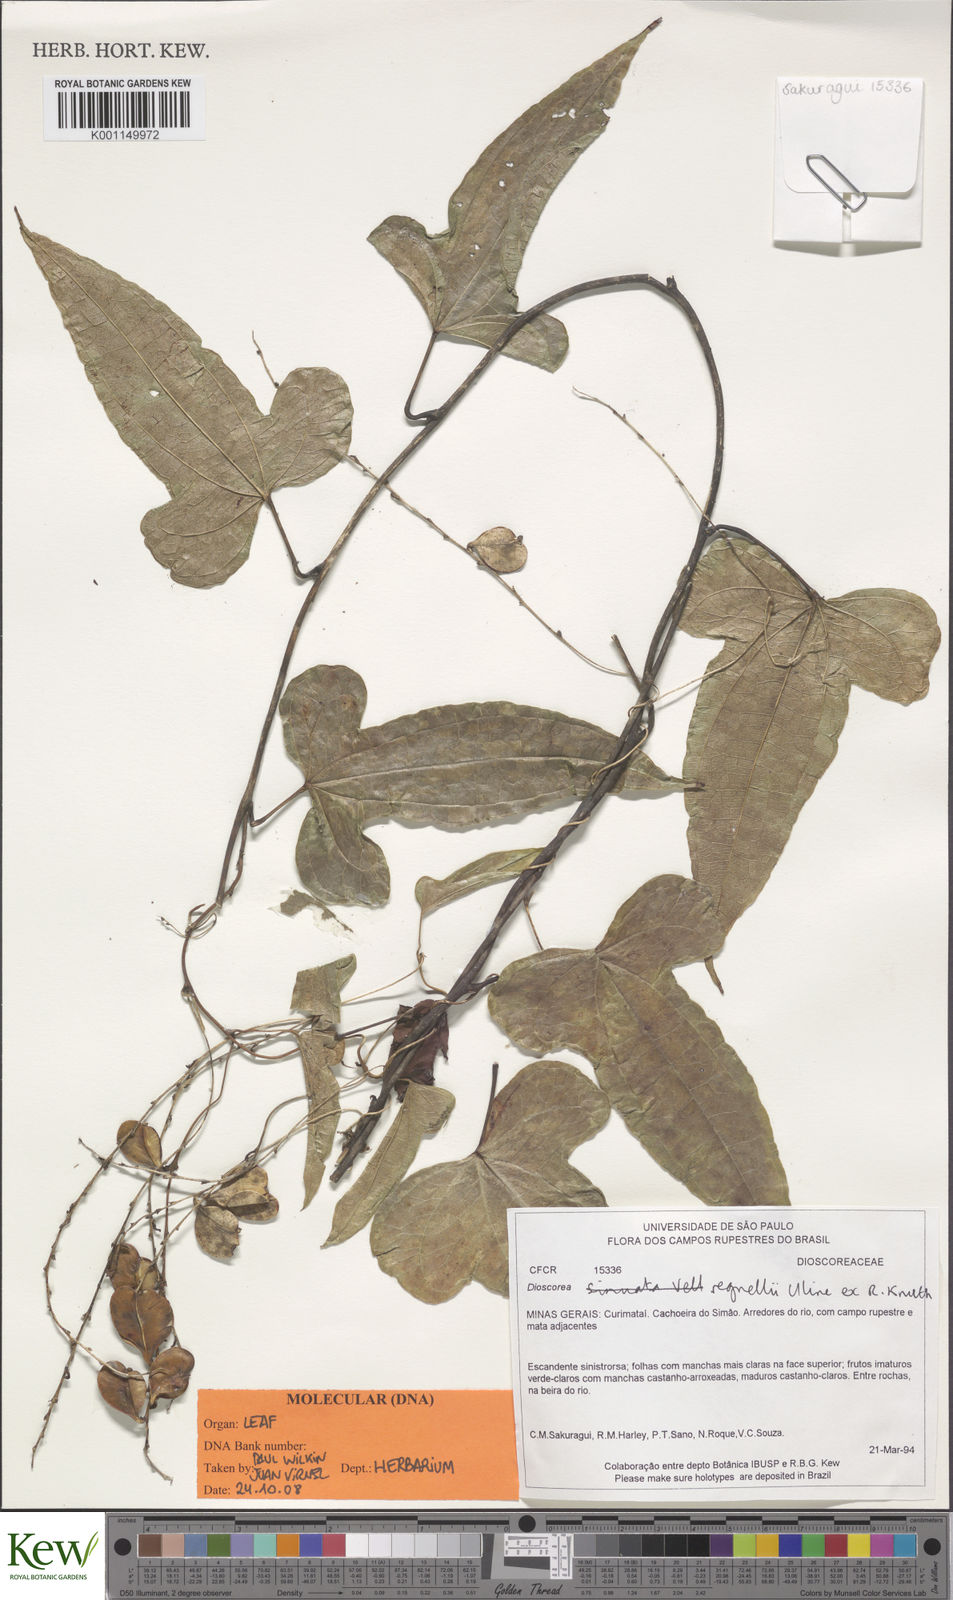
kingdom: Plantae
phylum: Tracheophyta
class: Liliopsida
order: Dioscoreales
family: Dioscoreaceae
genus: Dioscorea
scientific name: Dioscorea regnellii
